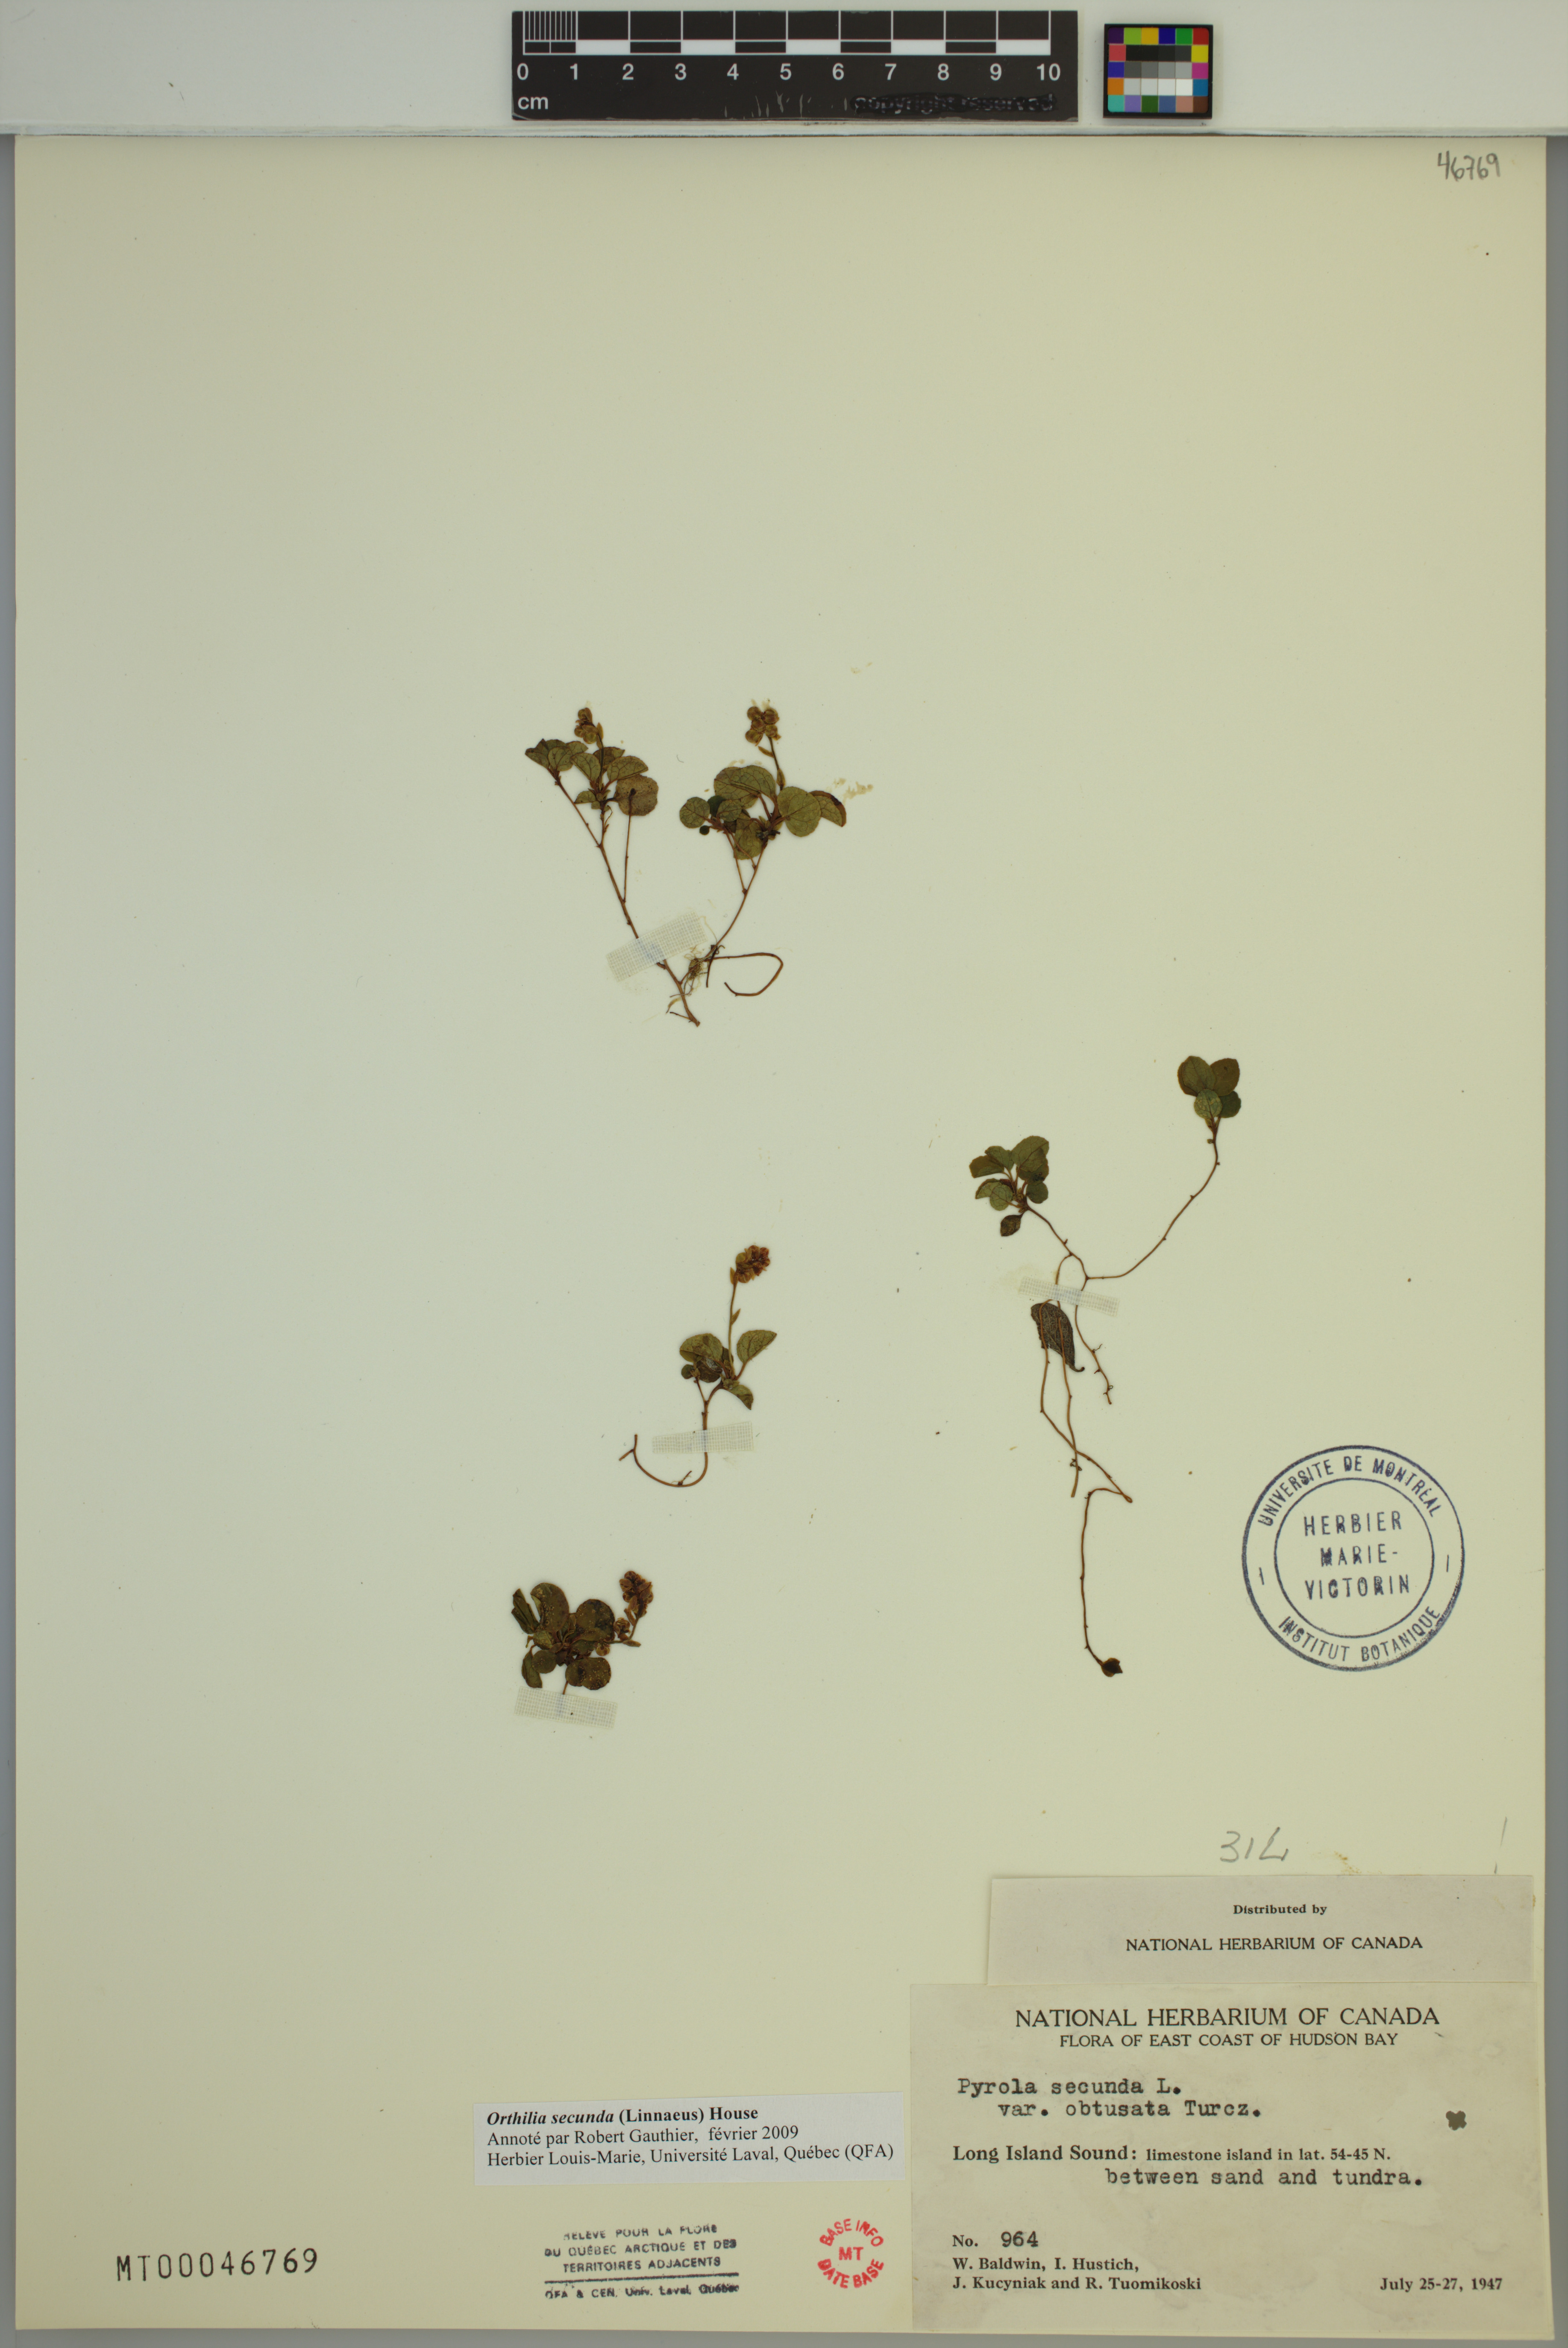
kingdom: Plantae
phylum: Tracheophyta
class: Magnoliopsida
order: Ericales
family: Ericaceae
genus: Orthilia
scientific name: Orthilia secunda
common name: One-sided orthilia
